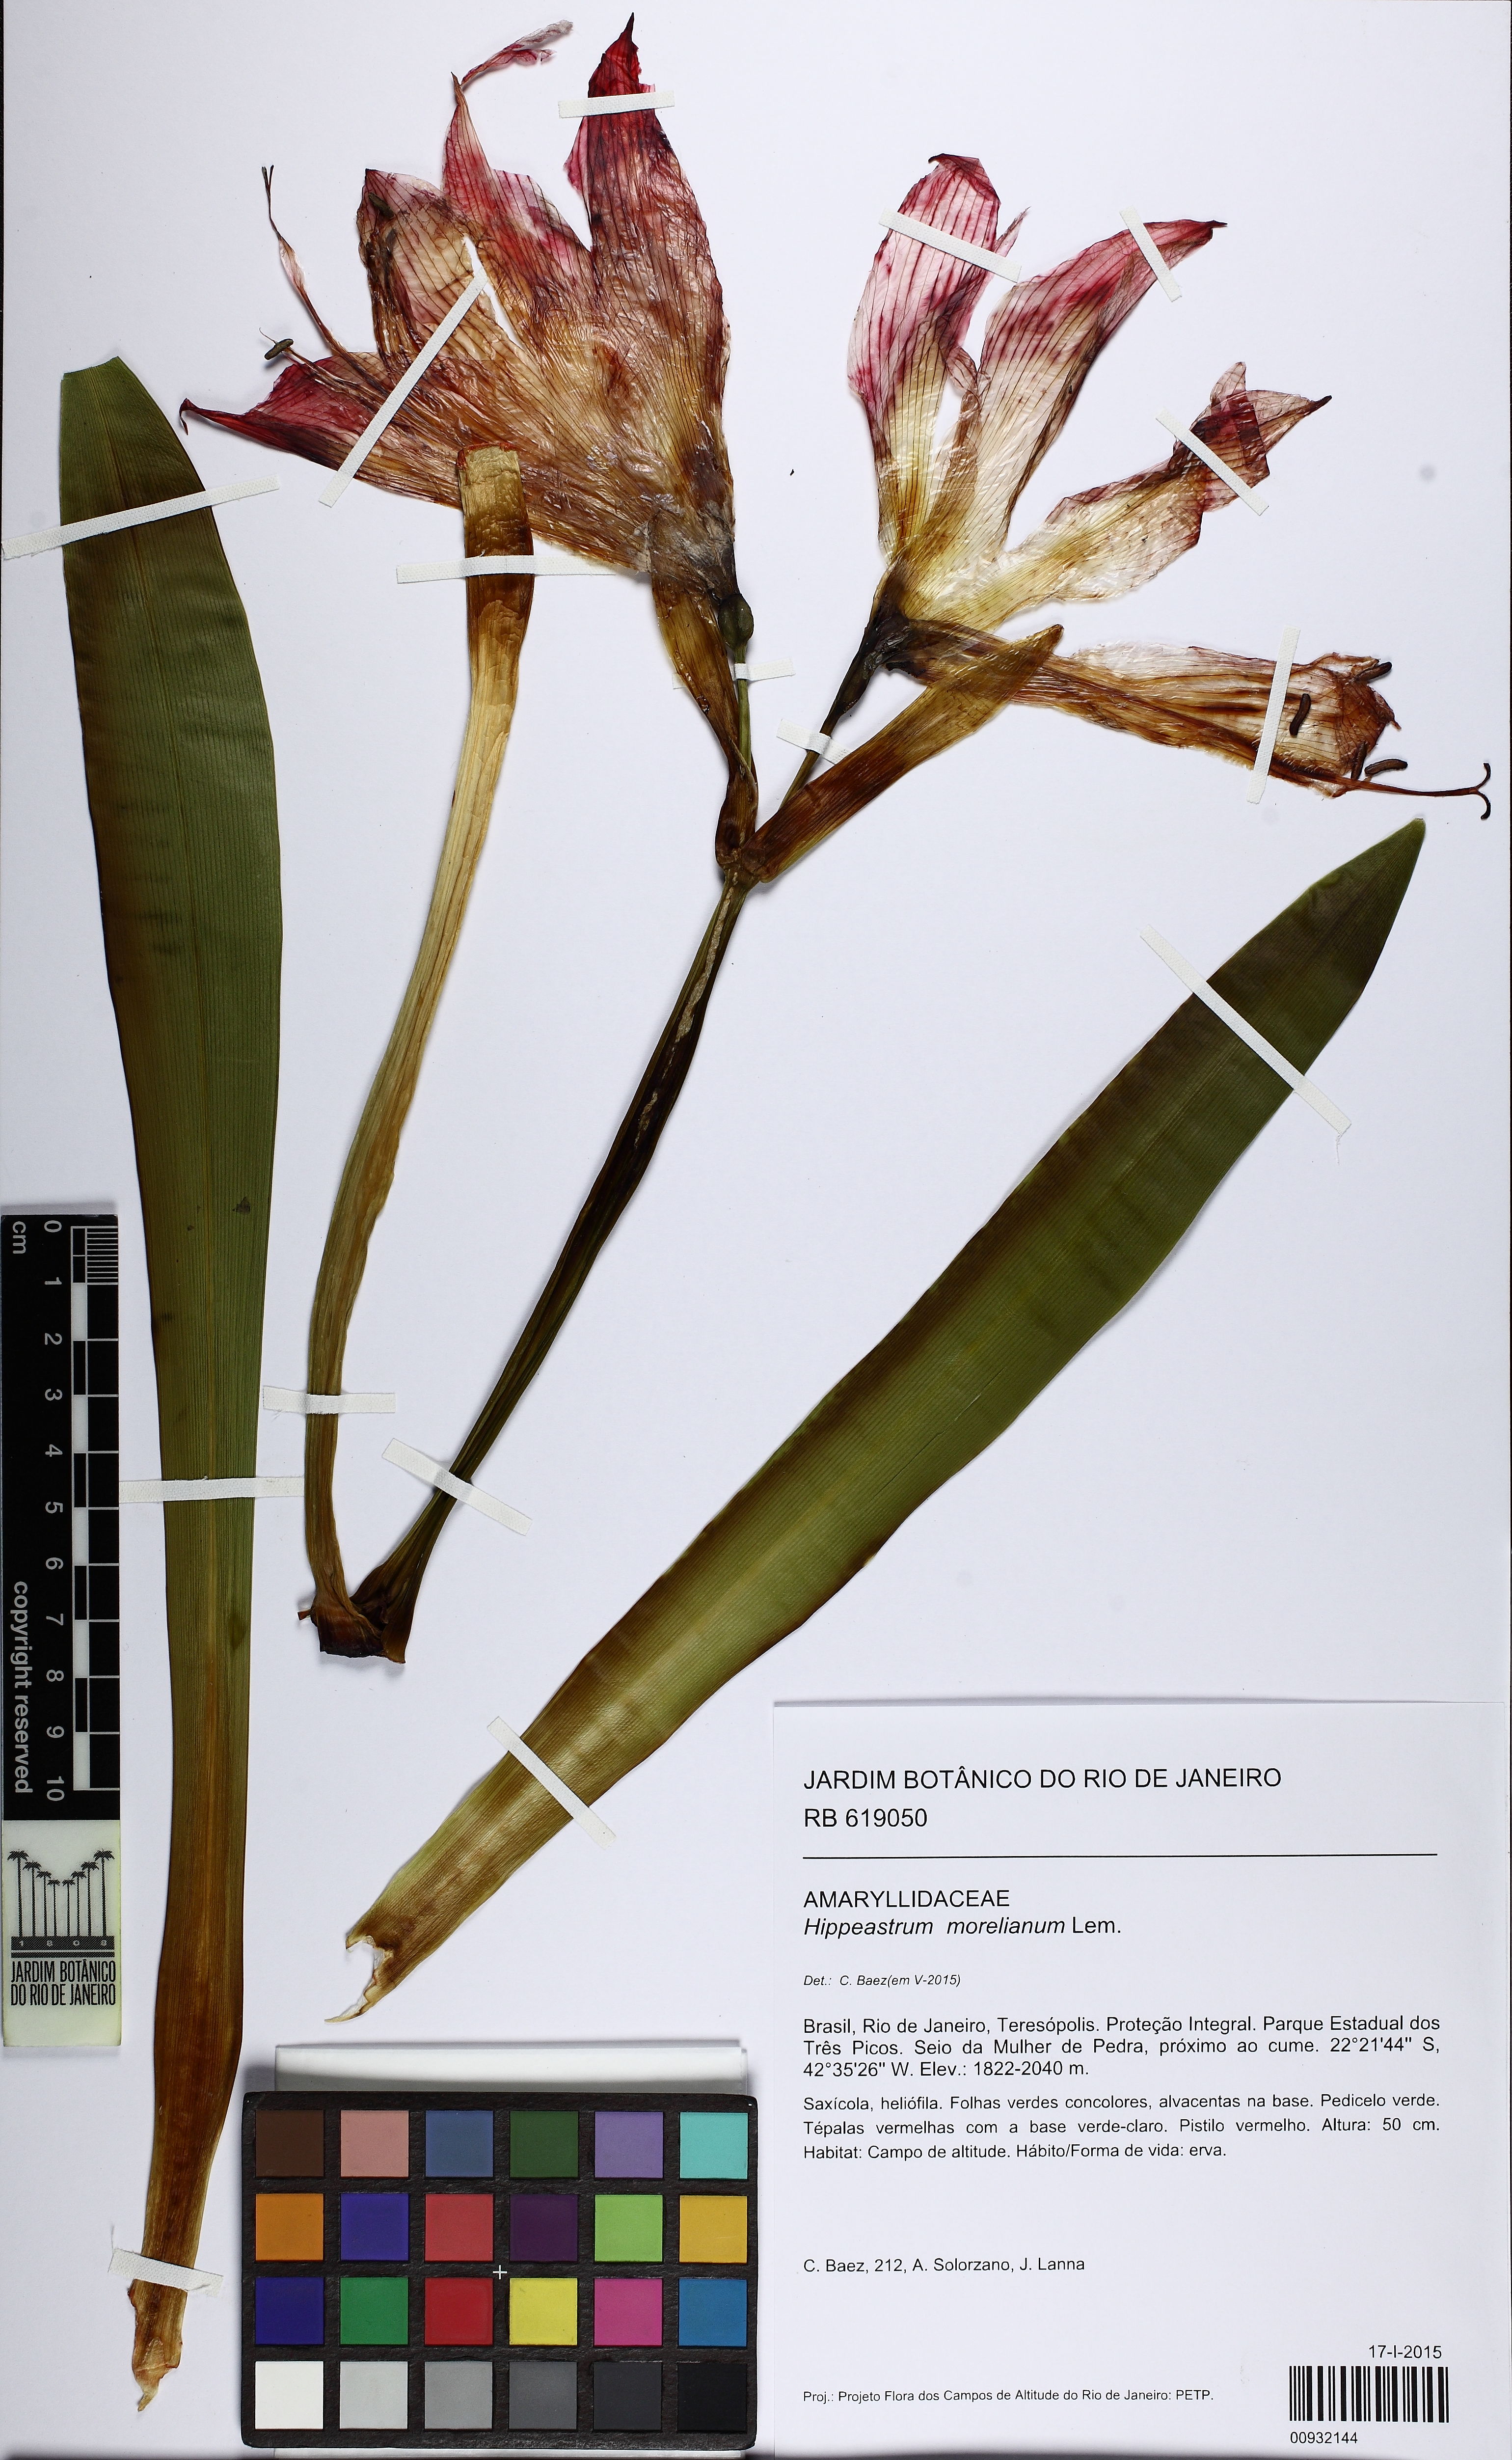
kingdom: Plantae
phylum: Tracheophyta
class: Liliopsida
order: Asparagales
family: Amaryllidaceae
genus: Hippeastrum
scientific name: Hippeastrum morelianum
